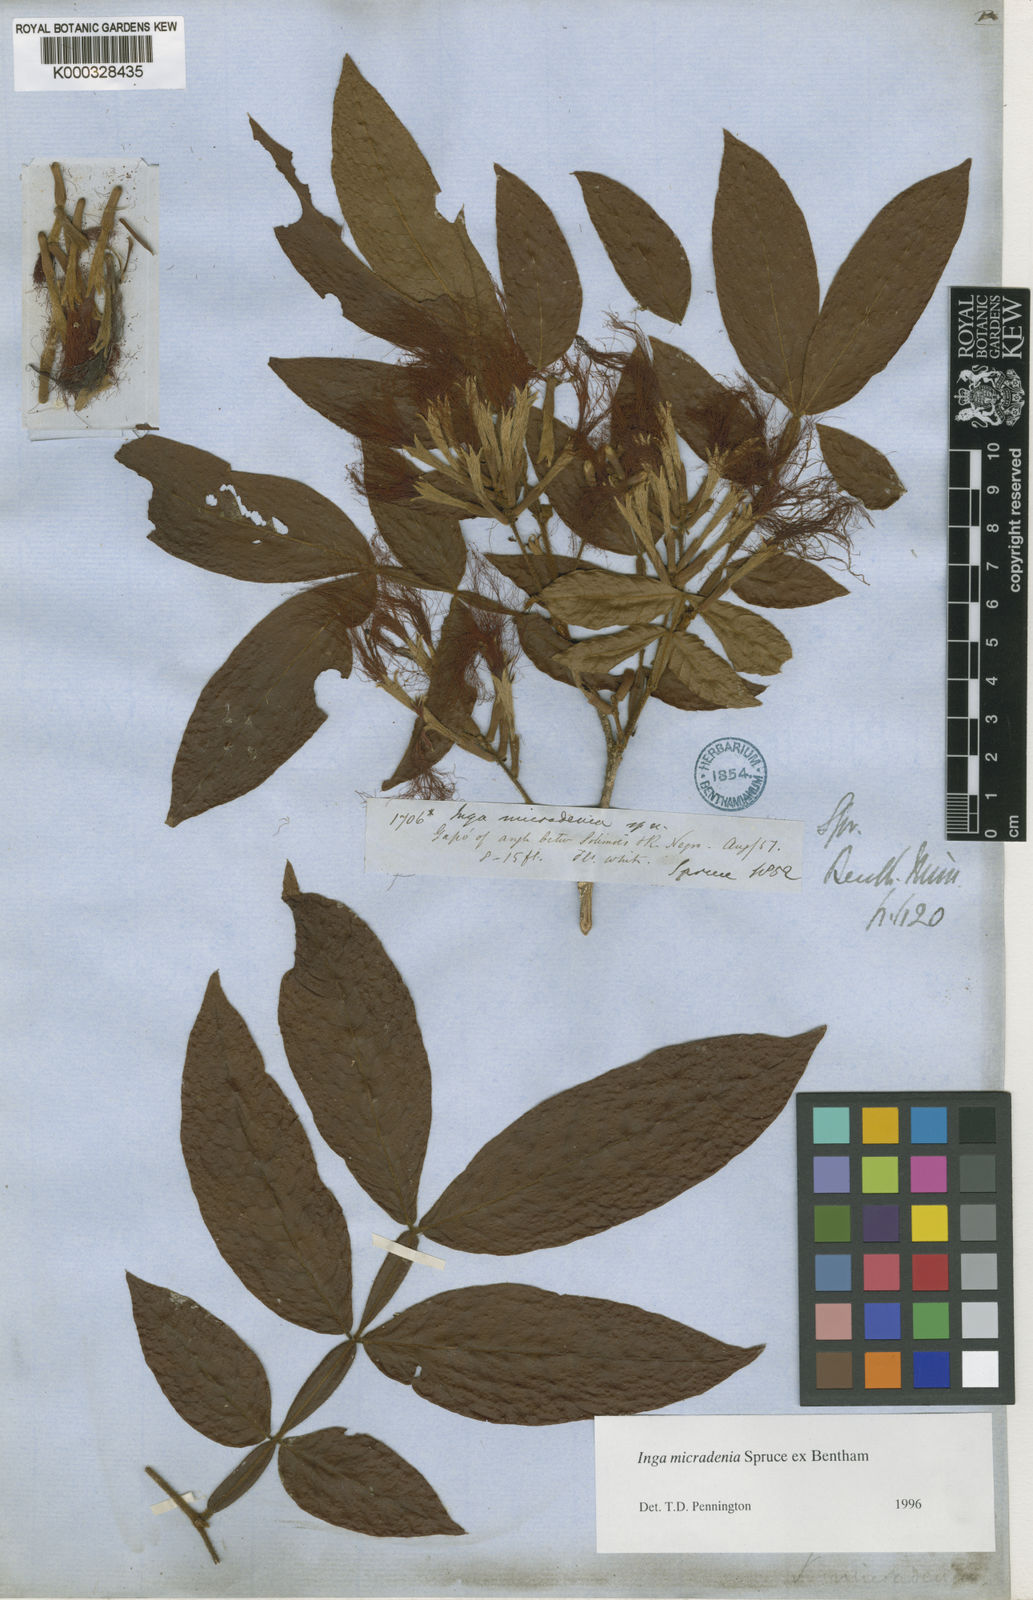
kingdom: Plantae
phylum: Tracheophyta
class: Magnoliopsida
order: Fabales
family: Fabaceae
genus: Inga
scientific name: Inga micradenia
